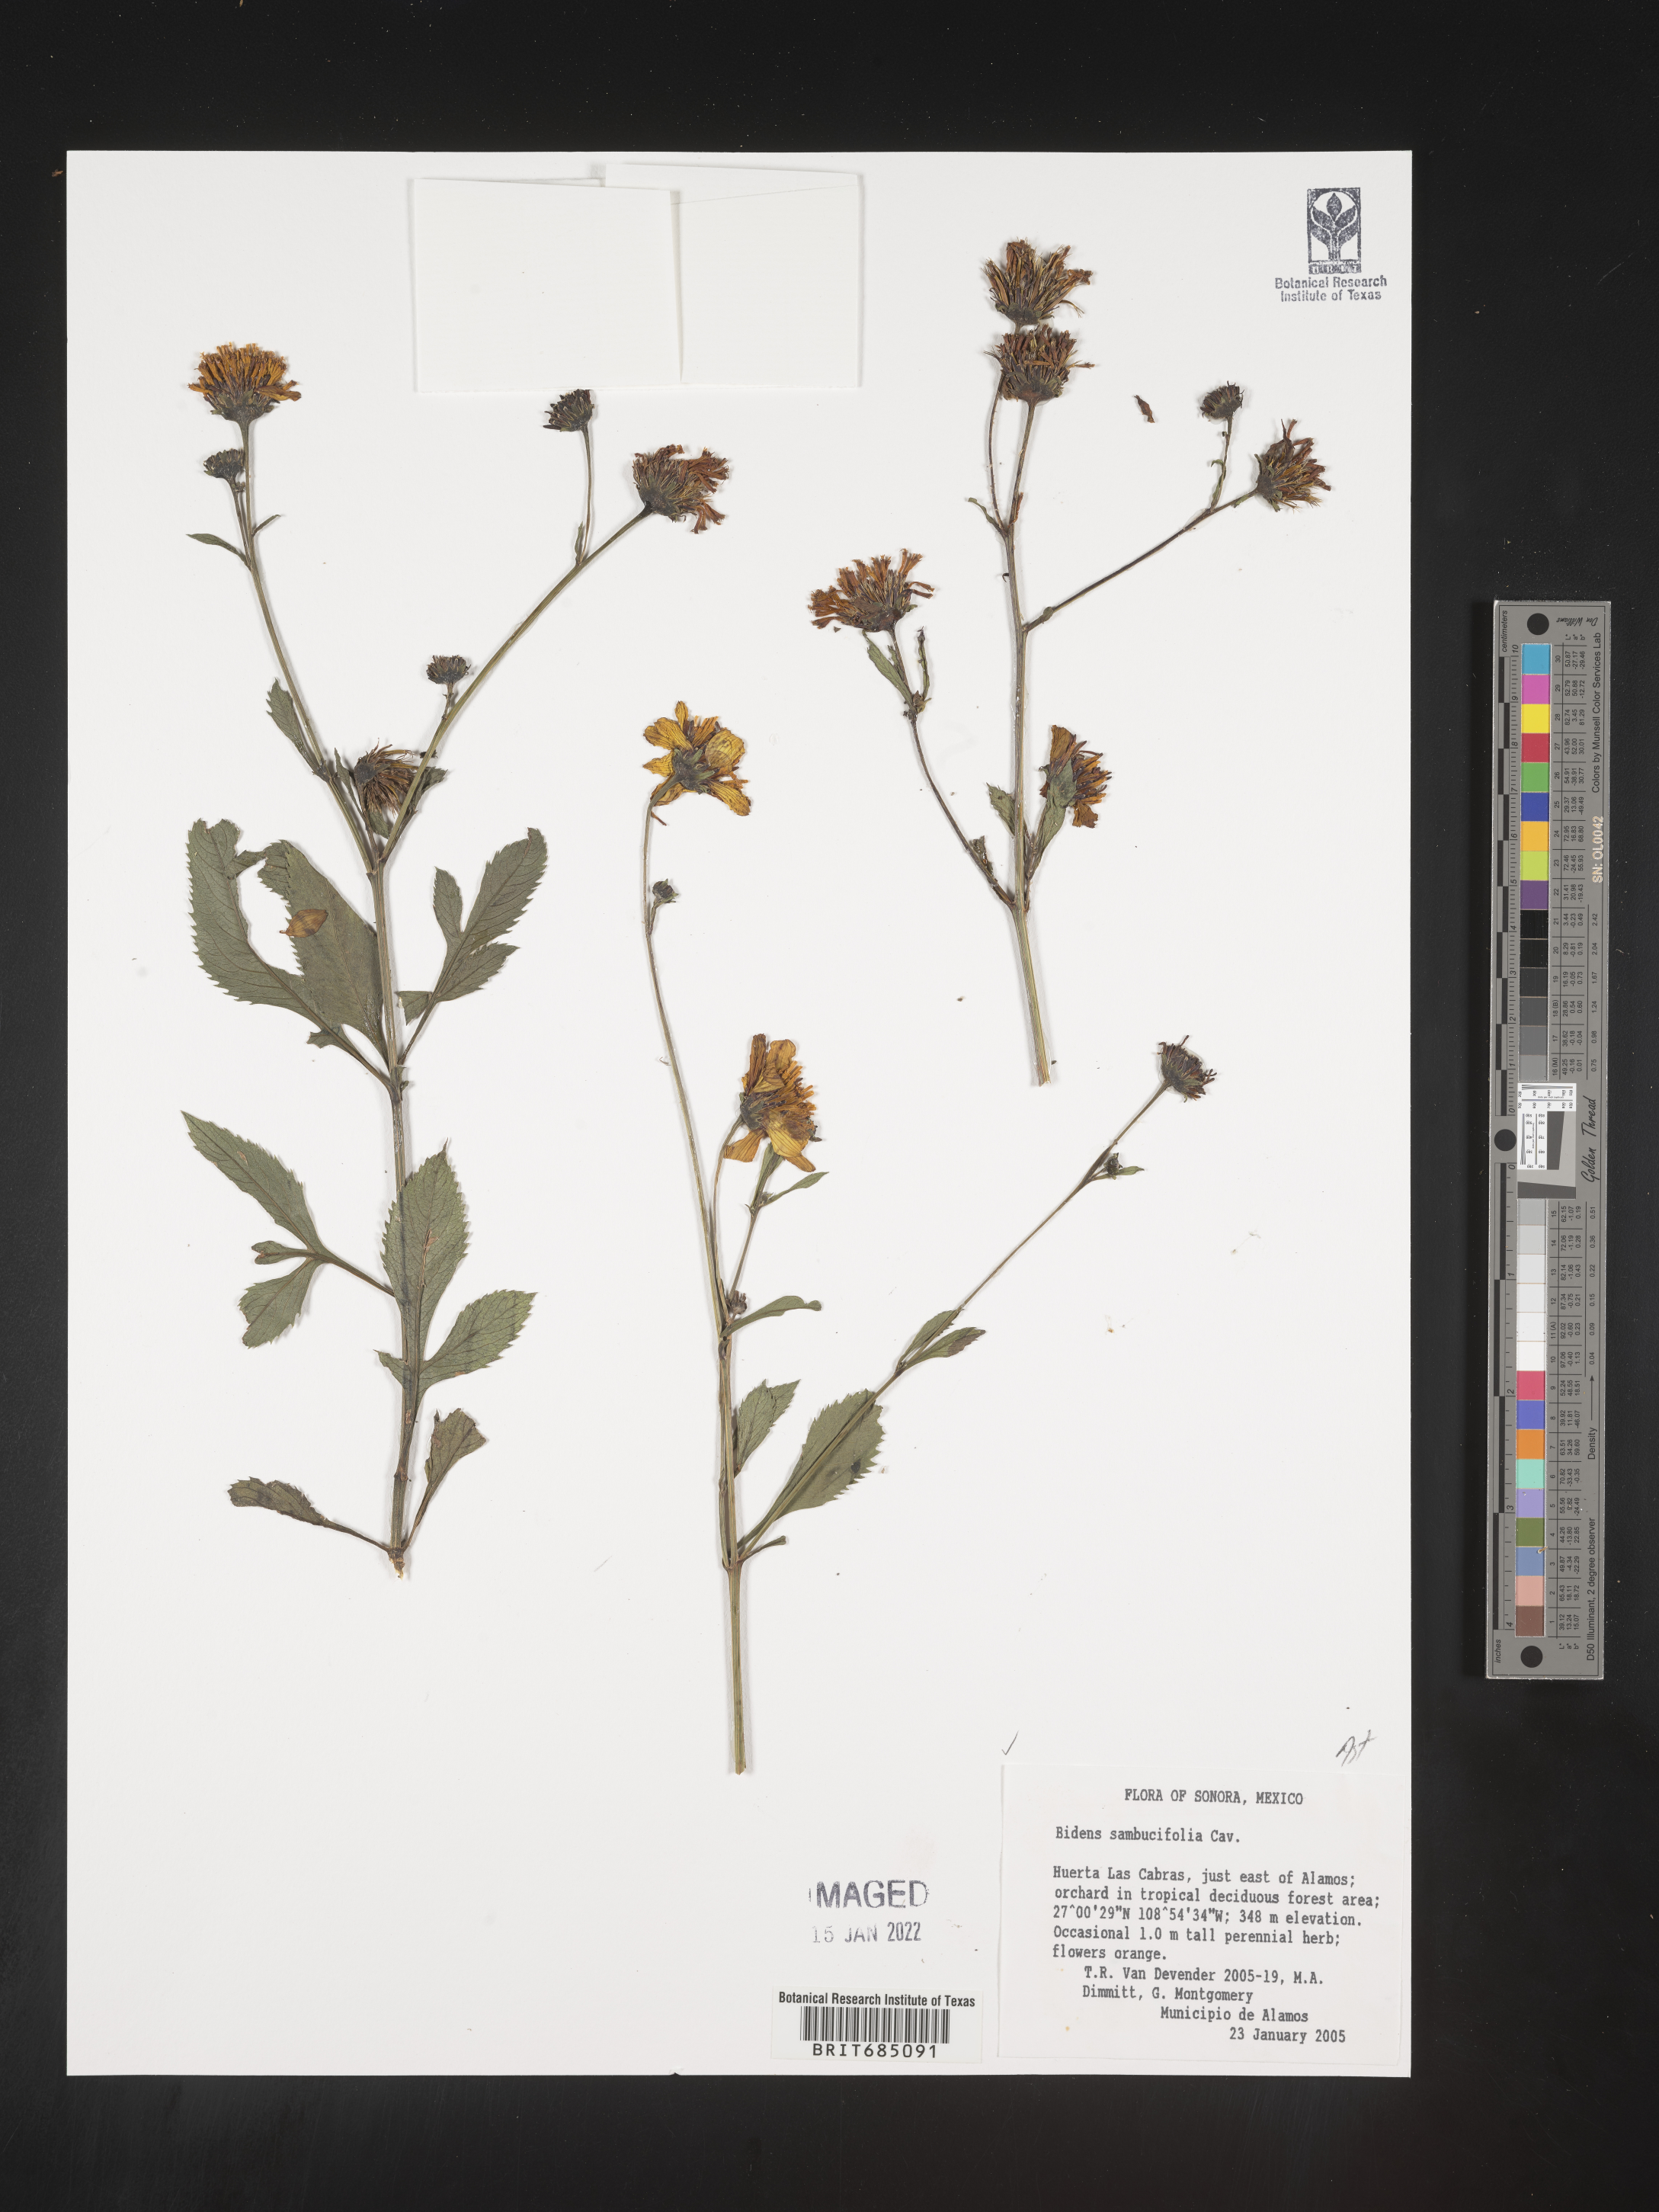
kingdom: Plantae
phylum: Tracheophyta
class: Magnoliopsida
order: Asterales
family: Asteraceae
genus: Bidens
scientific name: Bidens
